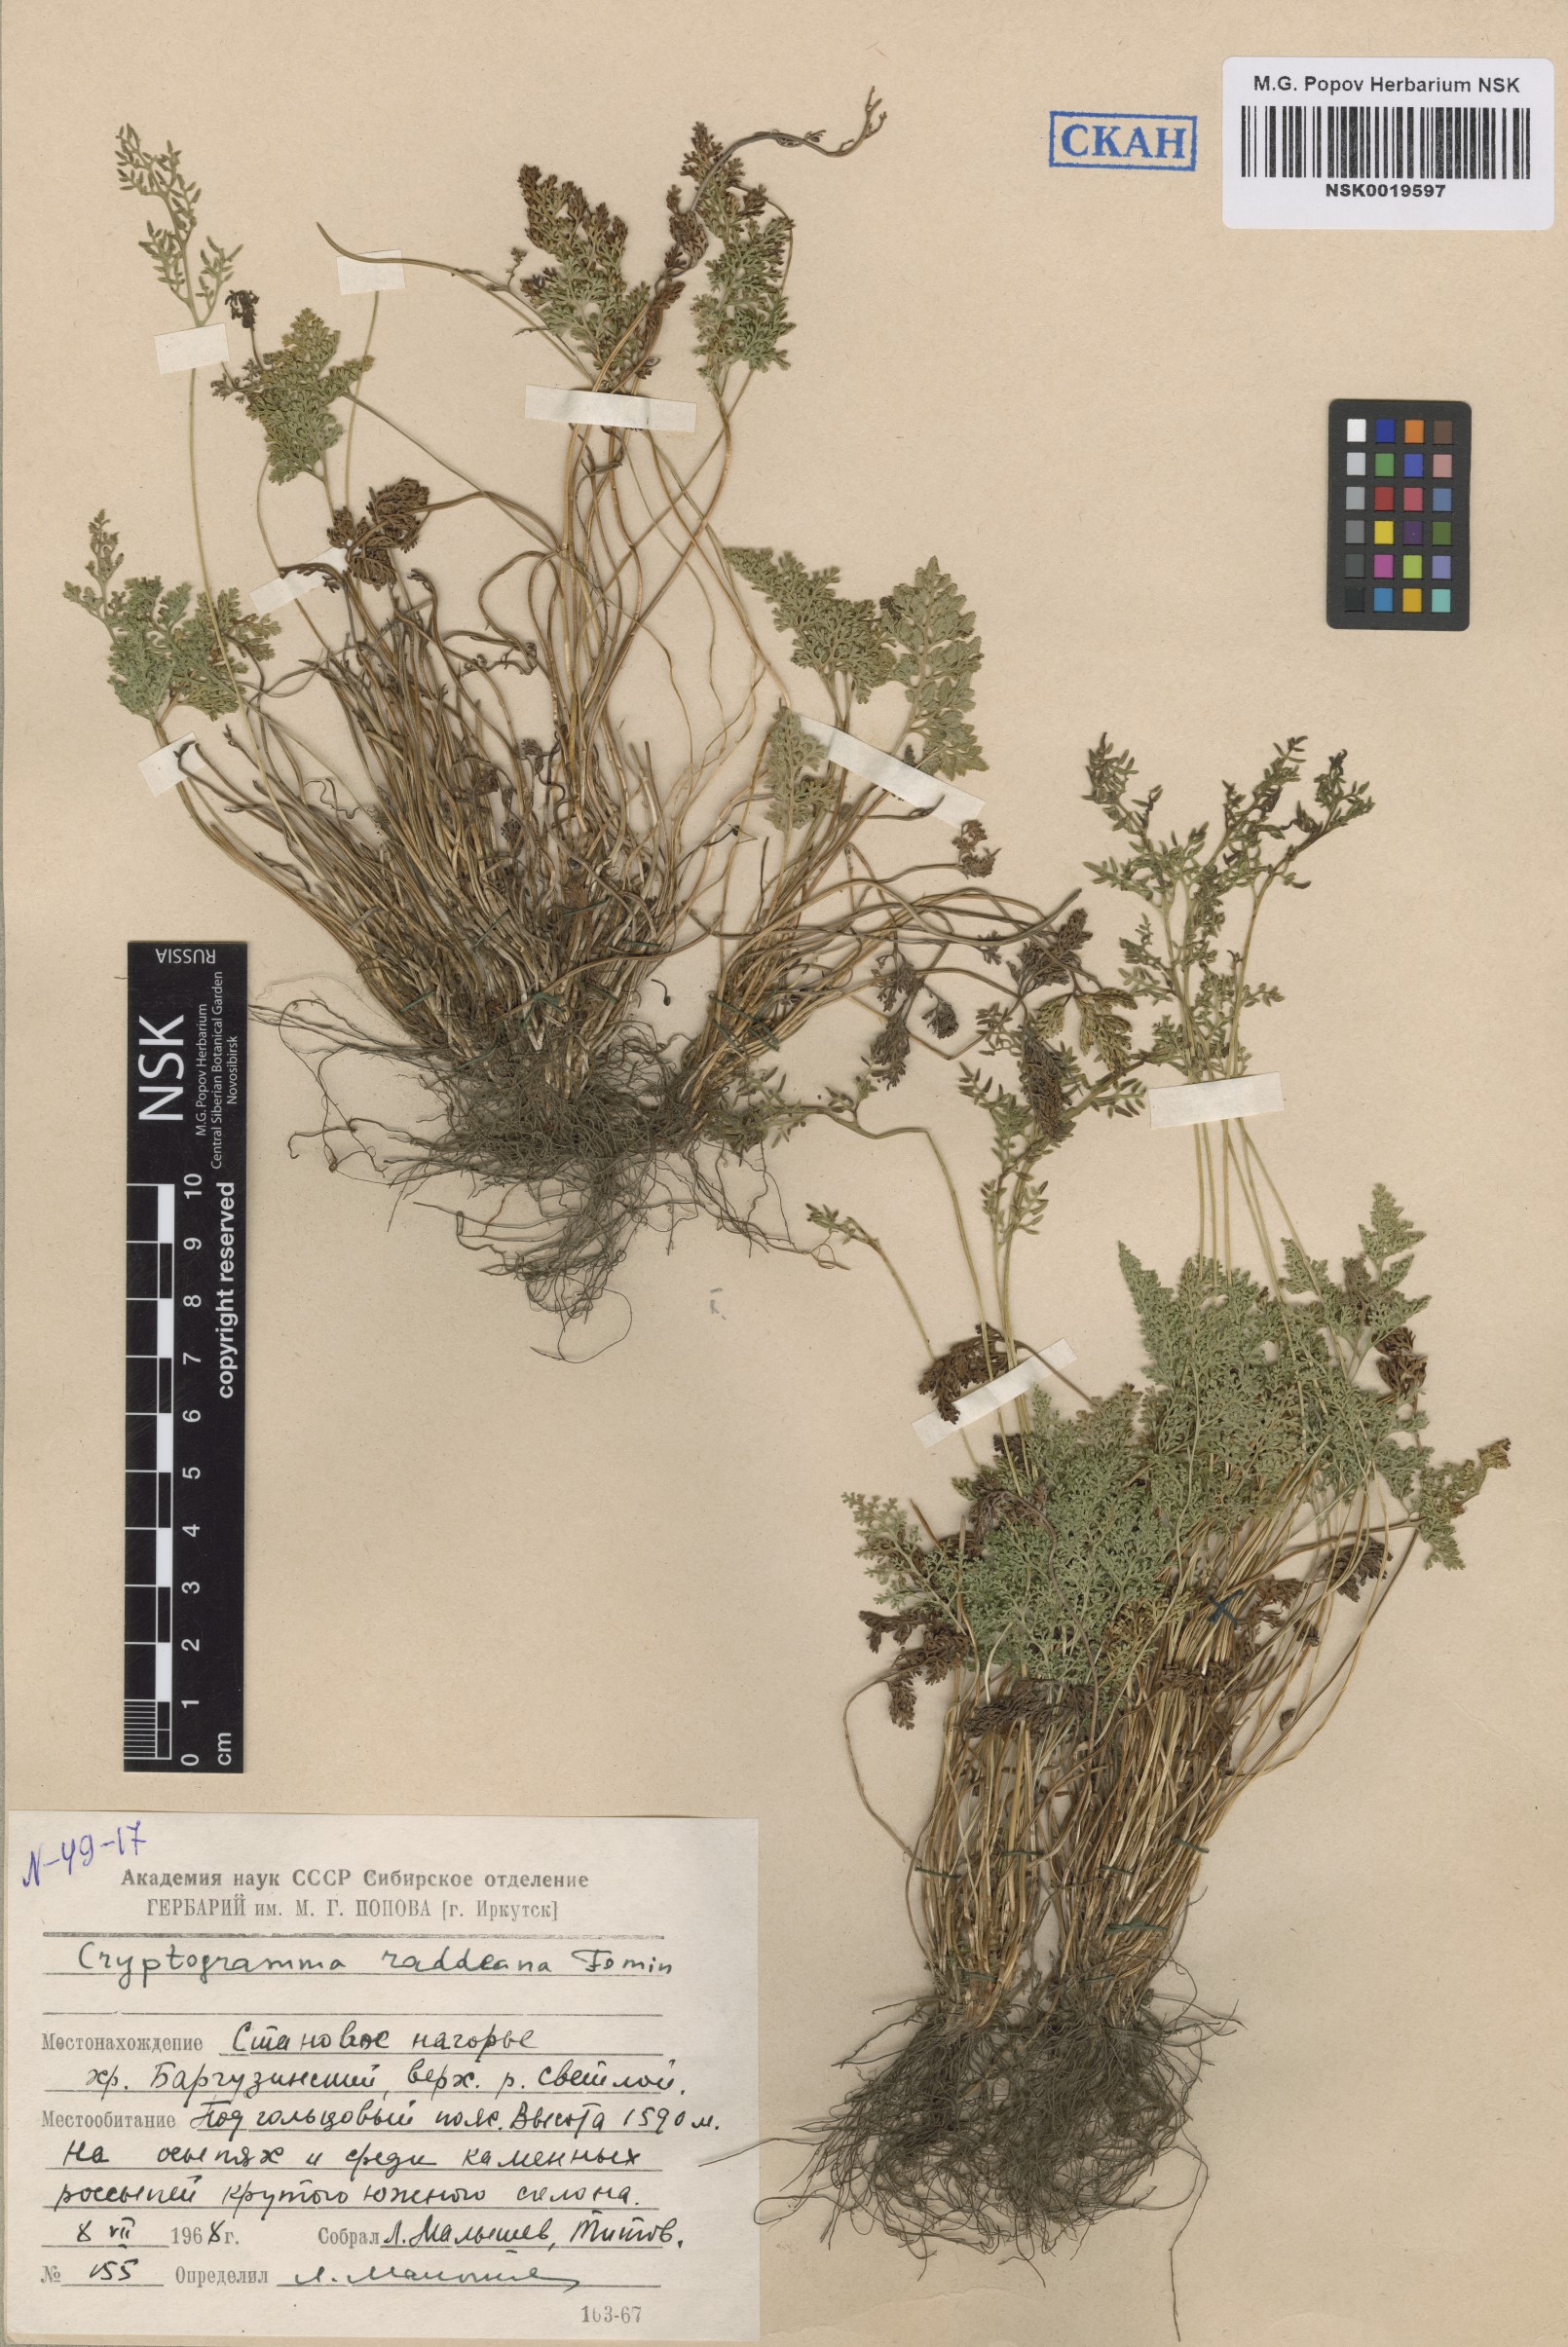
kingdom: Plantae
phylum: Tracheophyta
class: Polypodiopsida
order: Polypodiales
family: Pteridaceae
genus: Cryptogramma
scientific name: Cryptogramma brunoniana
